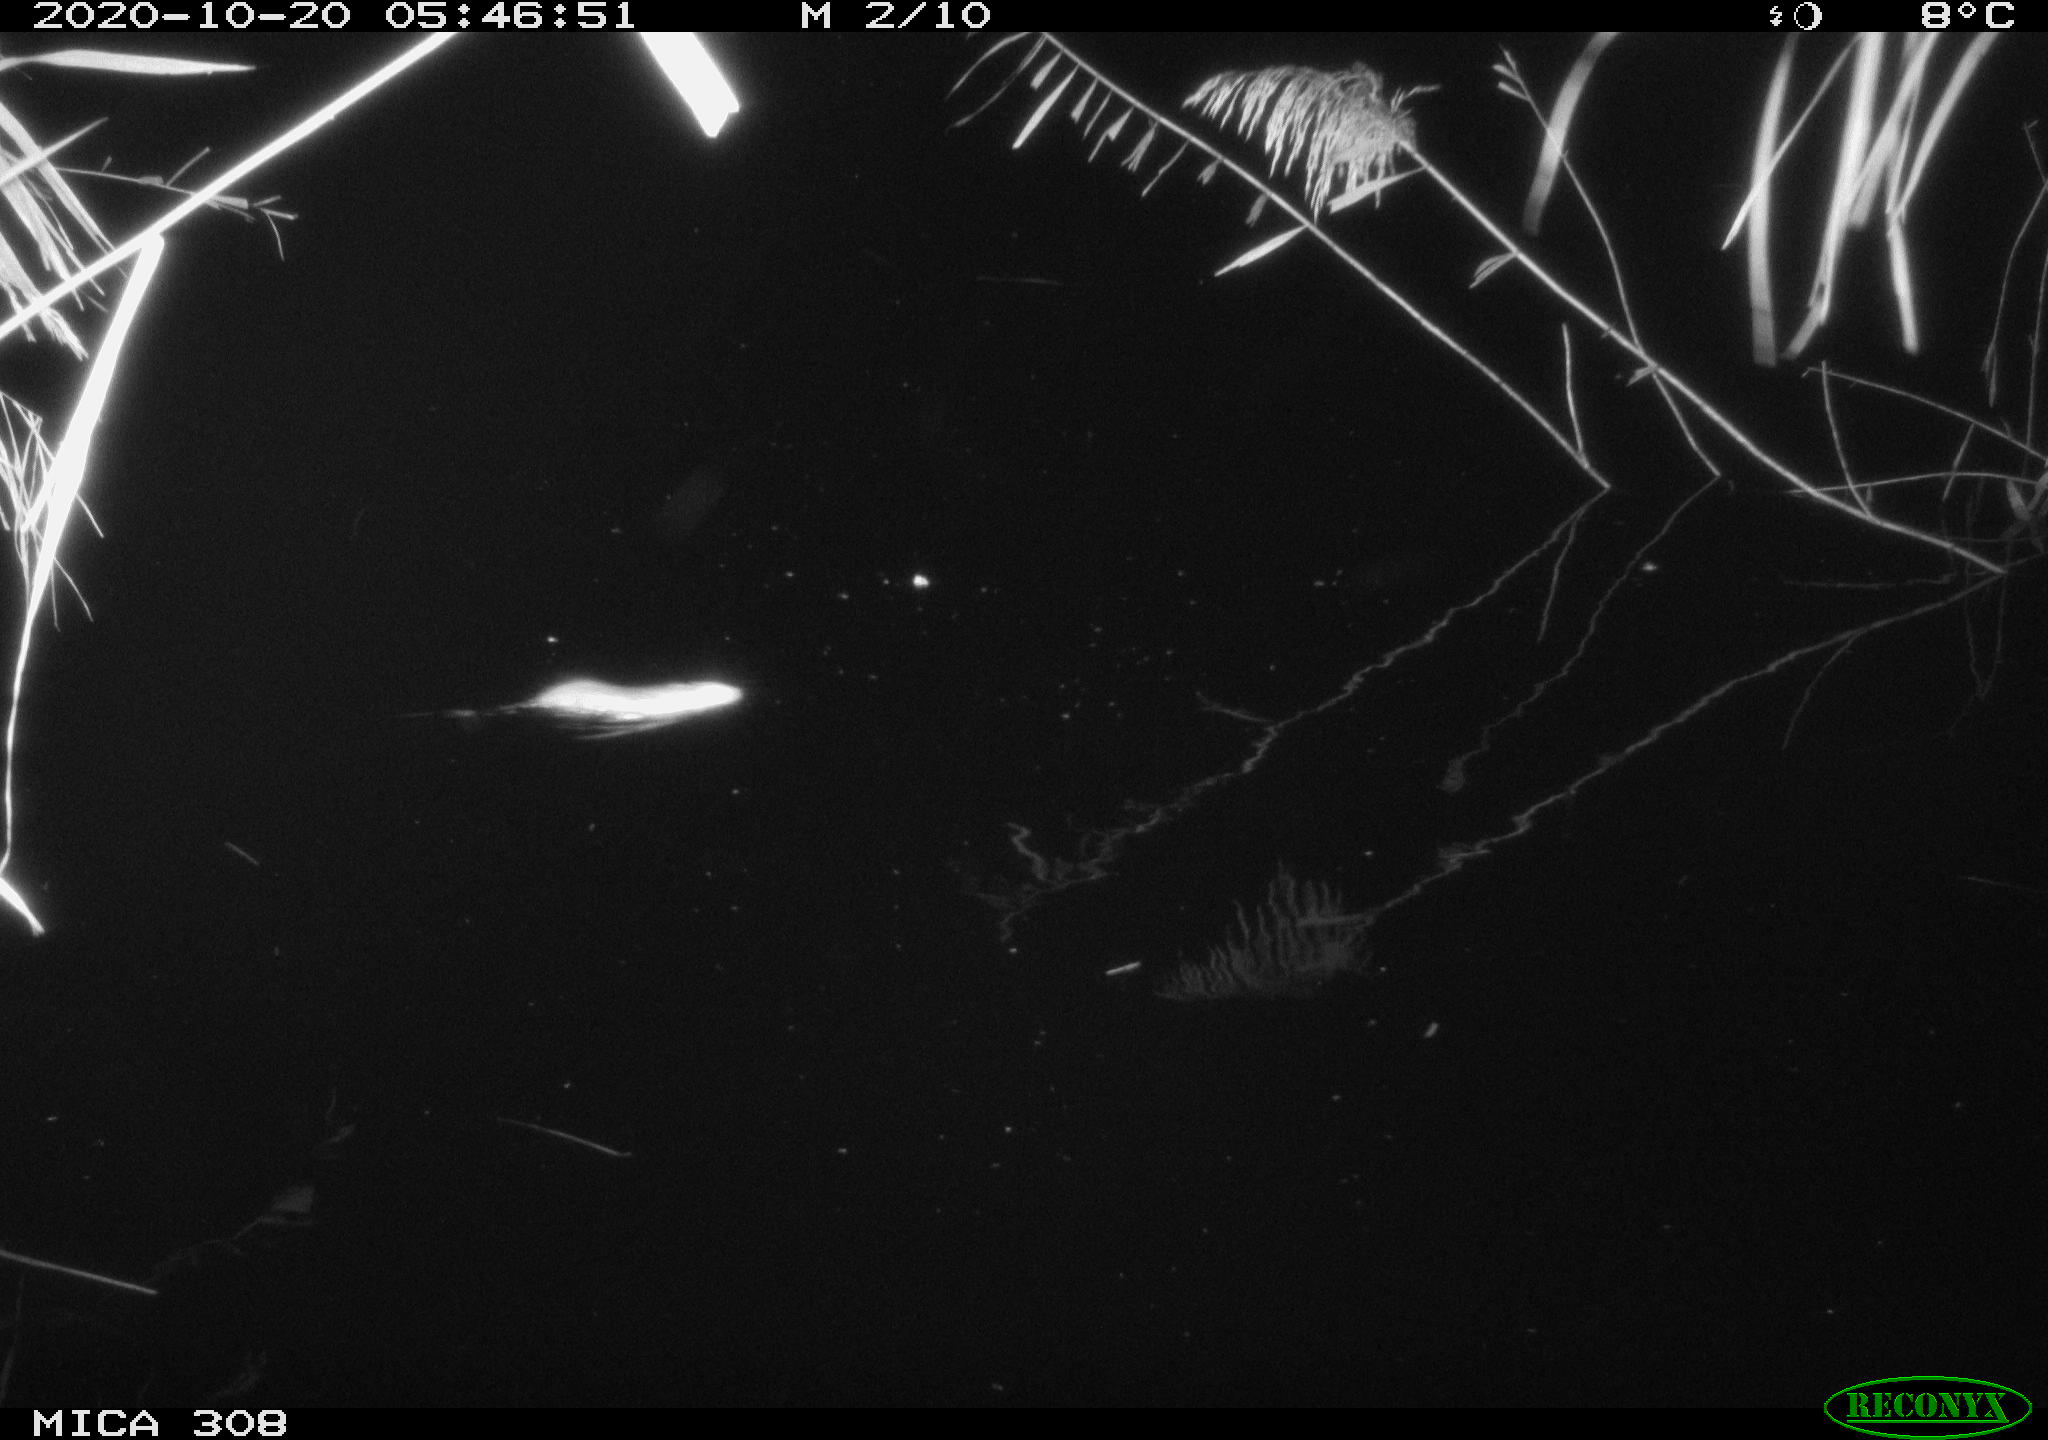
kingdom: Animalia
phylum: Chordata
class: Mammalia
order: Rodentia
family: Muridae
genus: Rattus
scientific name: Rattus norvegicus
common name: Brown rat
